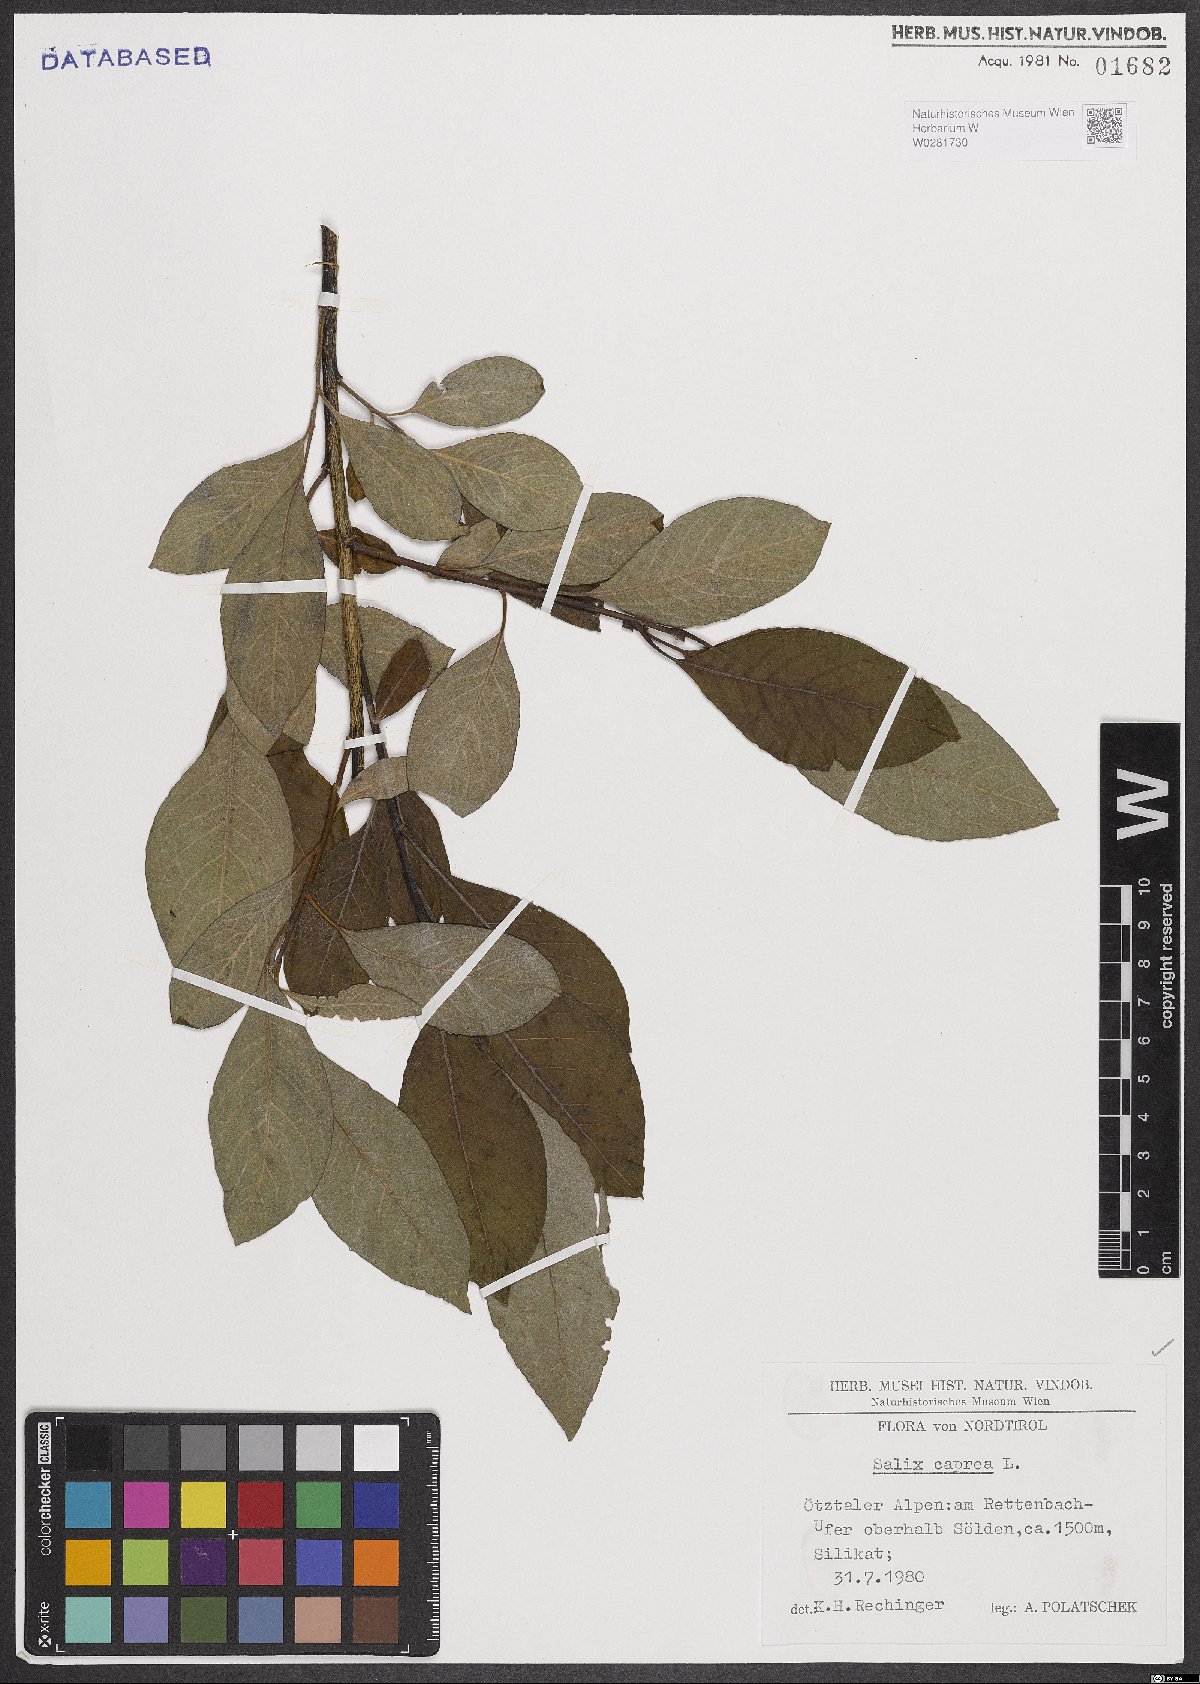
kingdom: Plantae
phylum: Tracheophyta
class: Magnoliopsida
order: Malpighiales
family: Salicaceae
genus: Salix
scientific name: Salix caprea
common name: Goat willow
